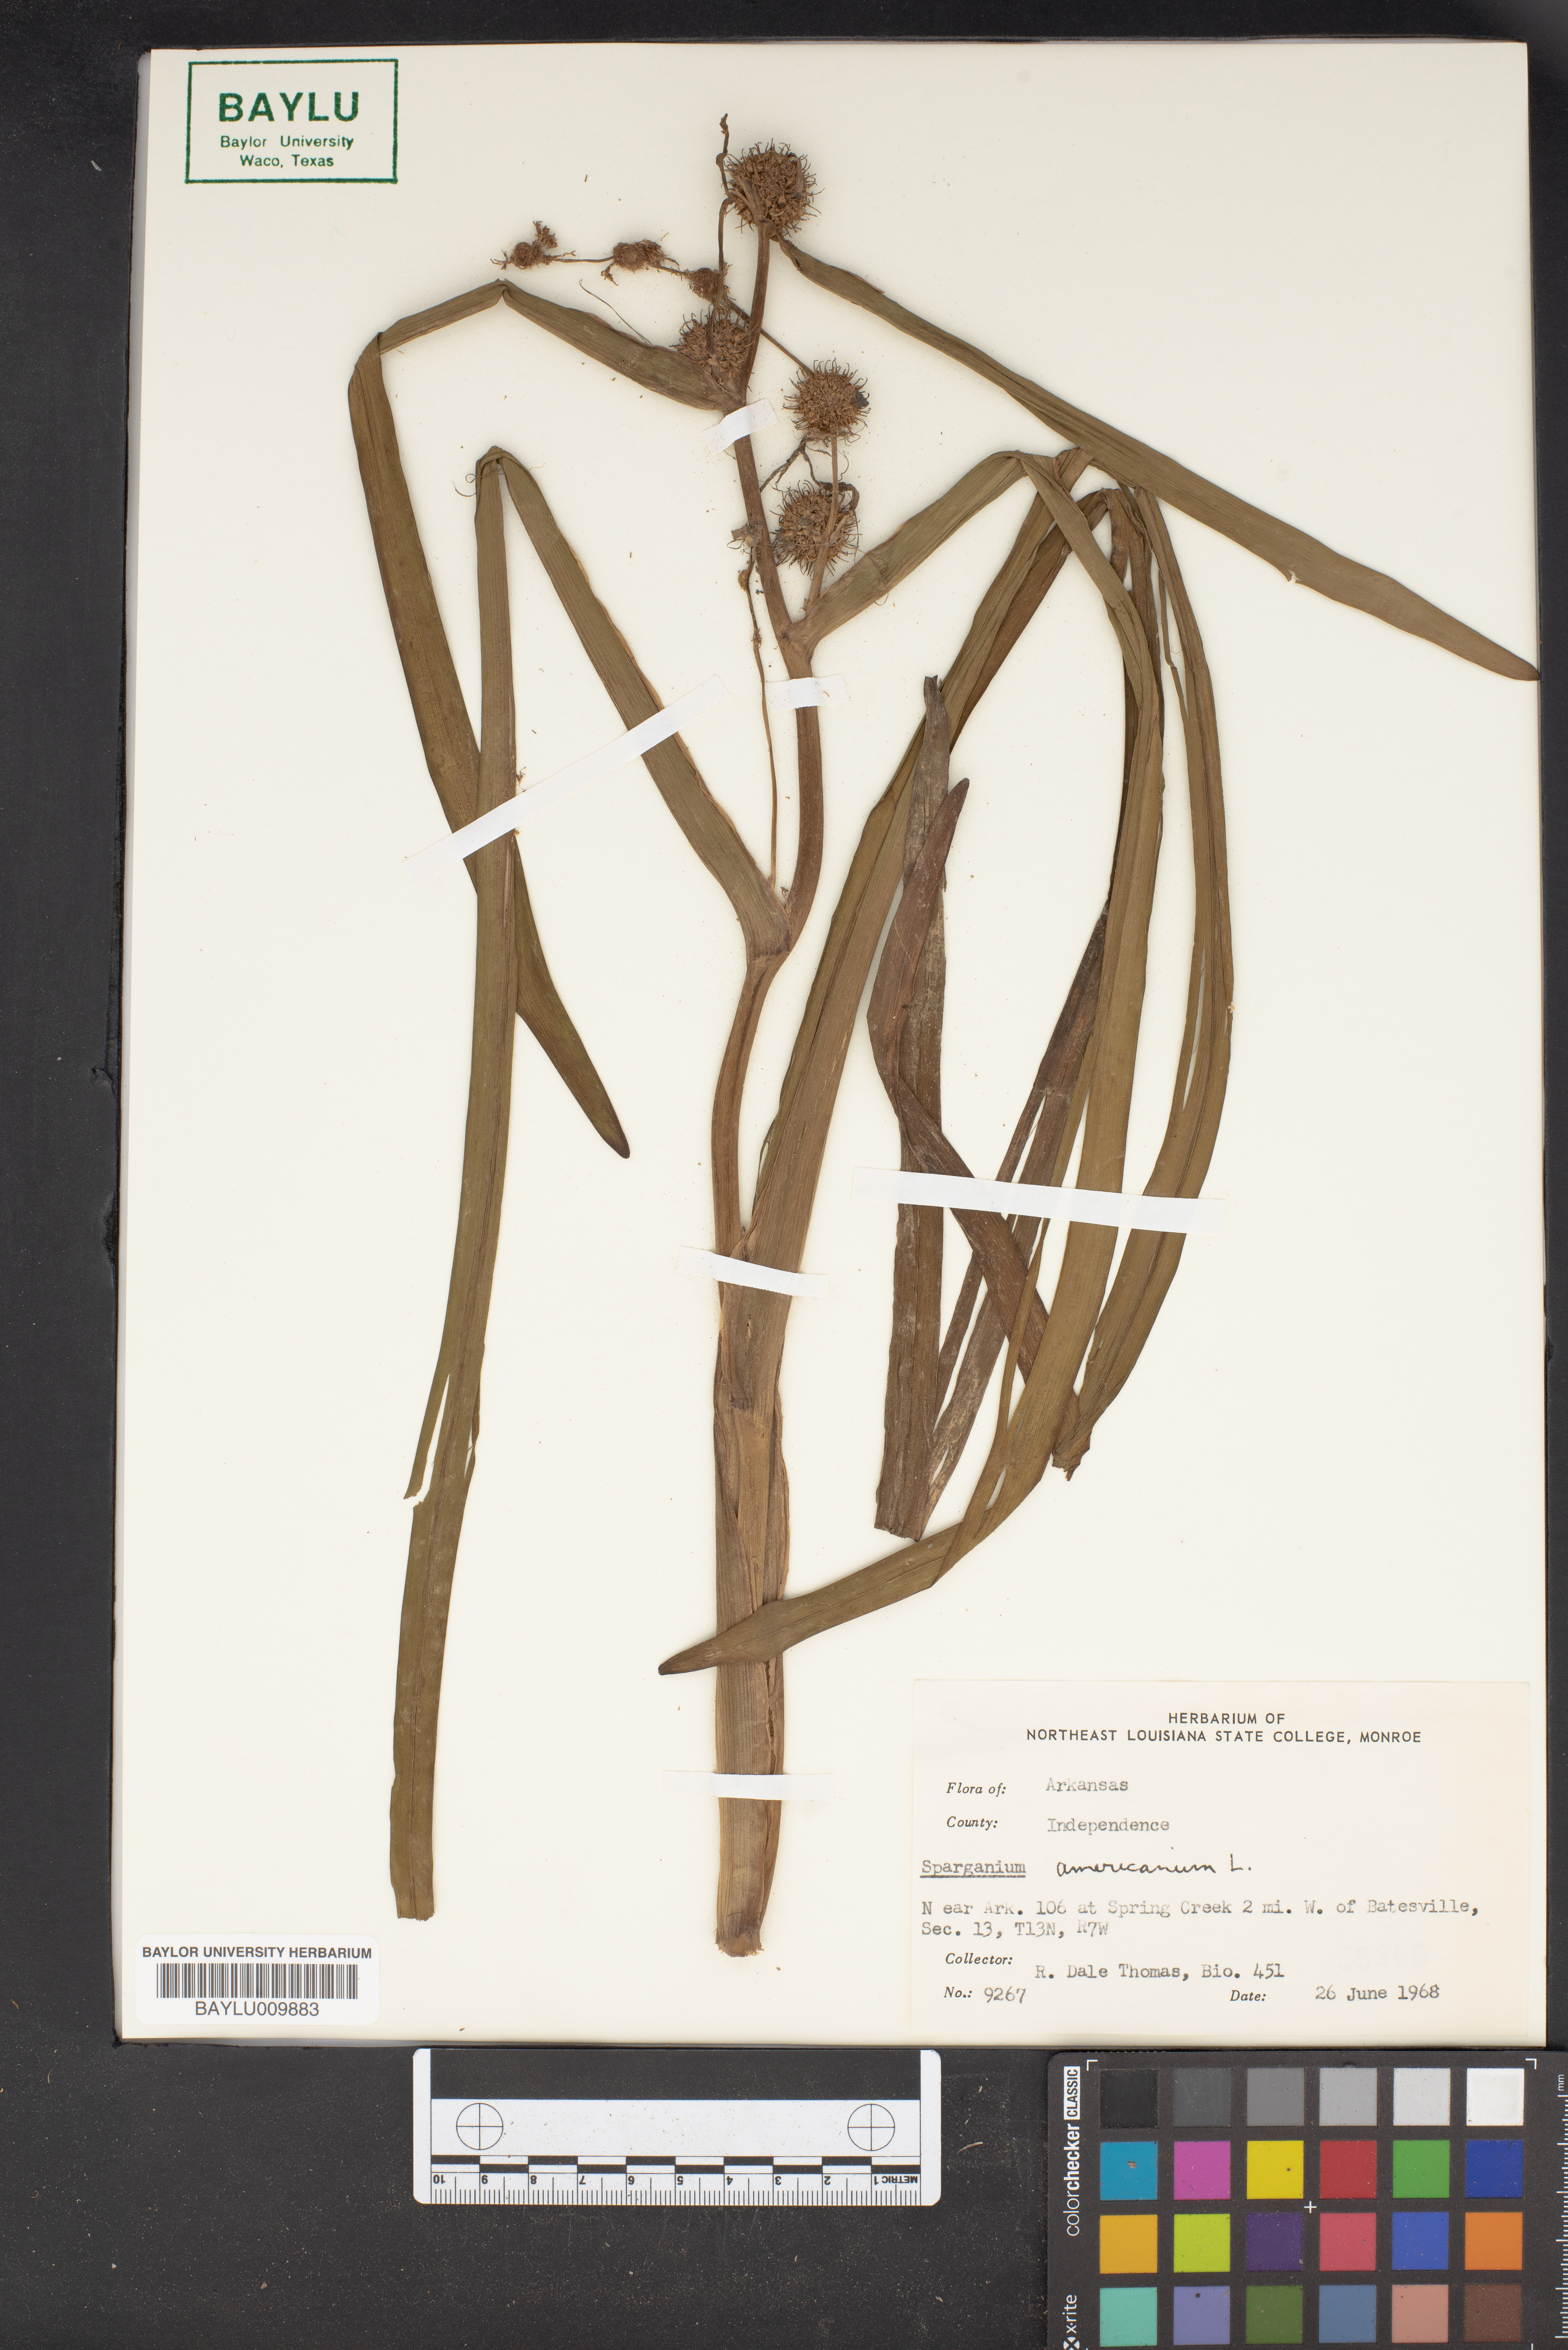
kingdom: Plantae
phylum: Tracheophyta
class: Liliopsida
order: Poales
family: Typhaceae
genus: Sparganium
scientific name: Sparganium americanum
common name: American burreed
